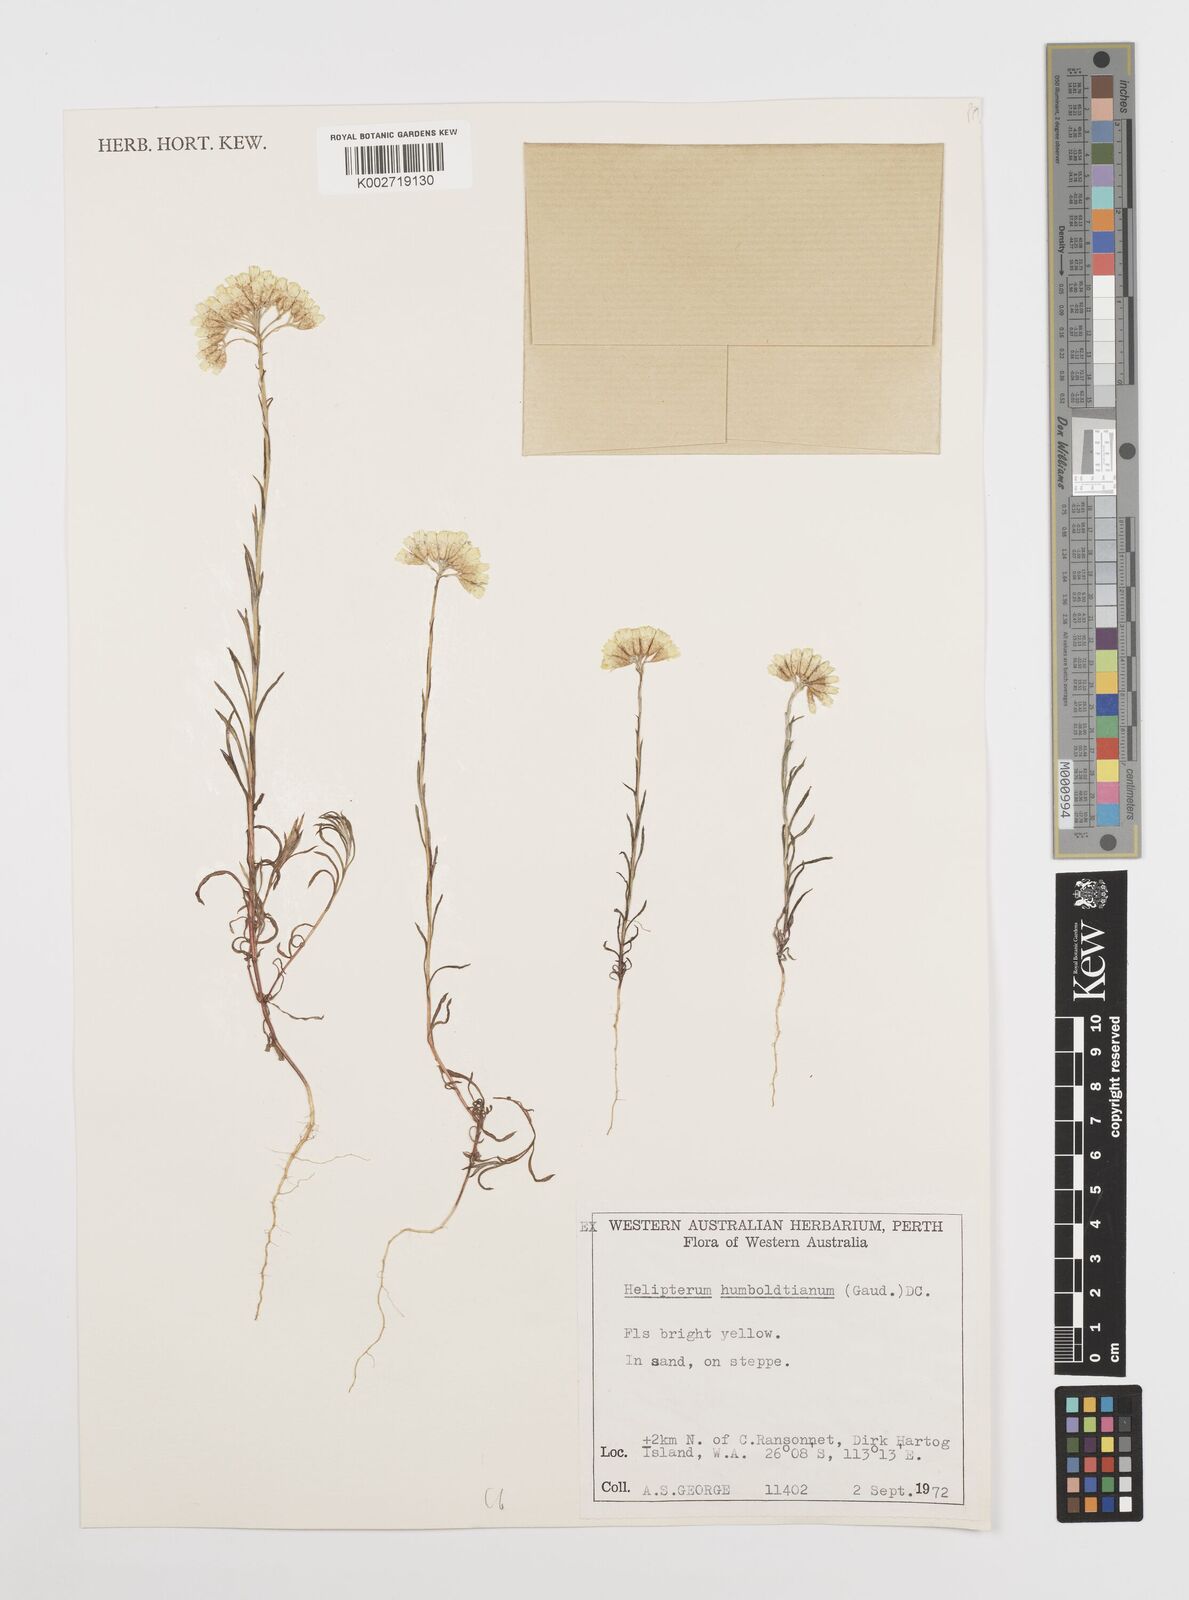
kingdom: Plantae
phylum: Tracheophyta
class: Magnoliopsida
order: Asterales
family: Asteraceae
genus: Rhodanthe
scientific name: Rhodanthe humboldtiana
